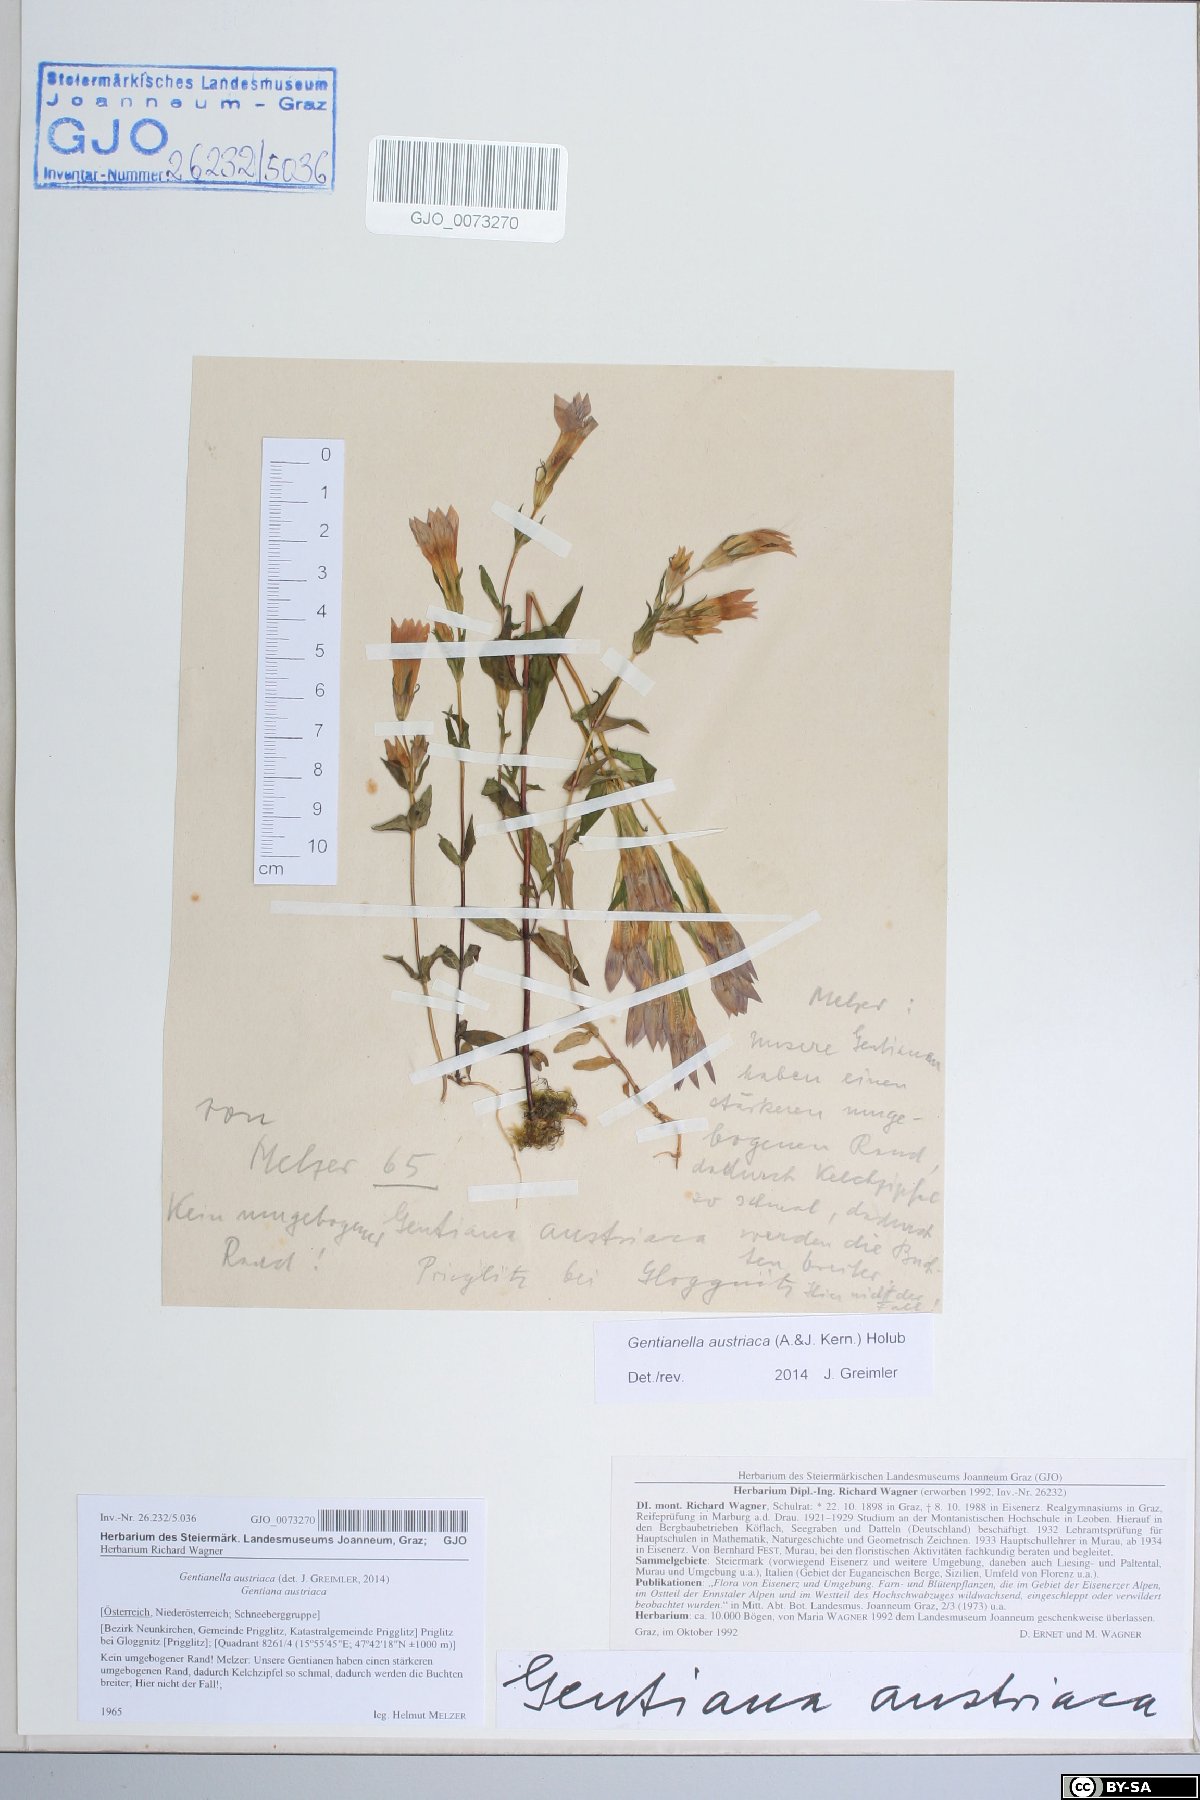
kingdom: Plantae
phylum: Tracheophyta
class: Magnoliopsida
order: Gentianales
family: Gentianaceae
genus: Gentianella
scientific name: Gentianella austriaca
